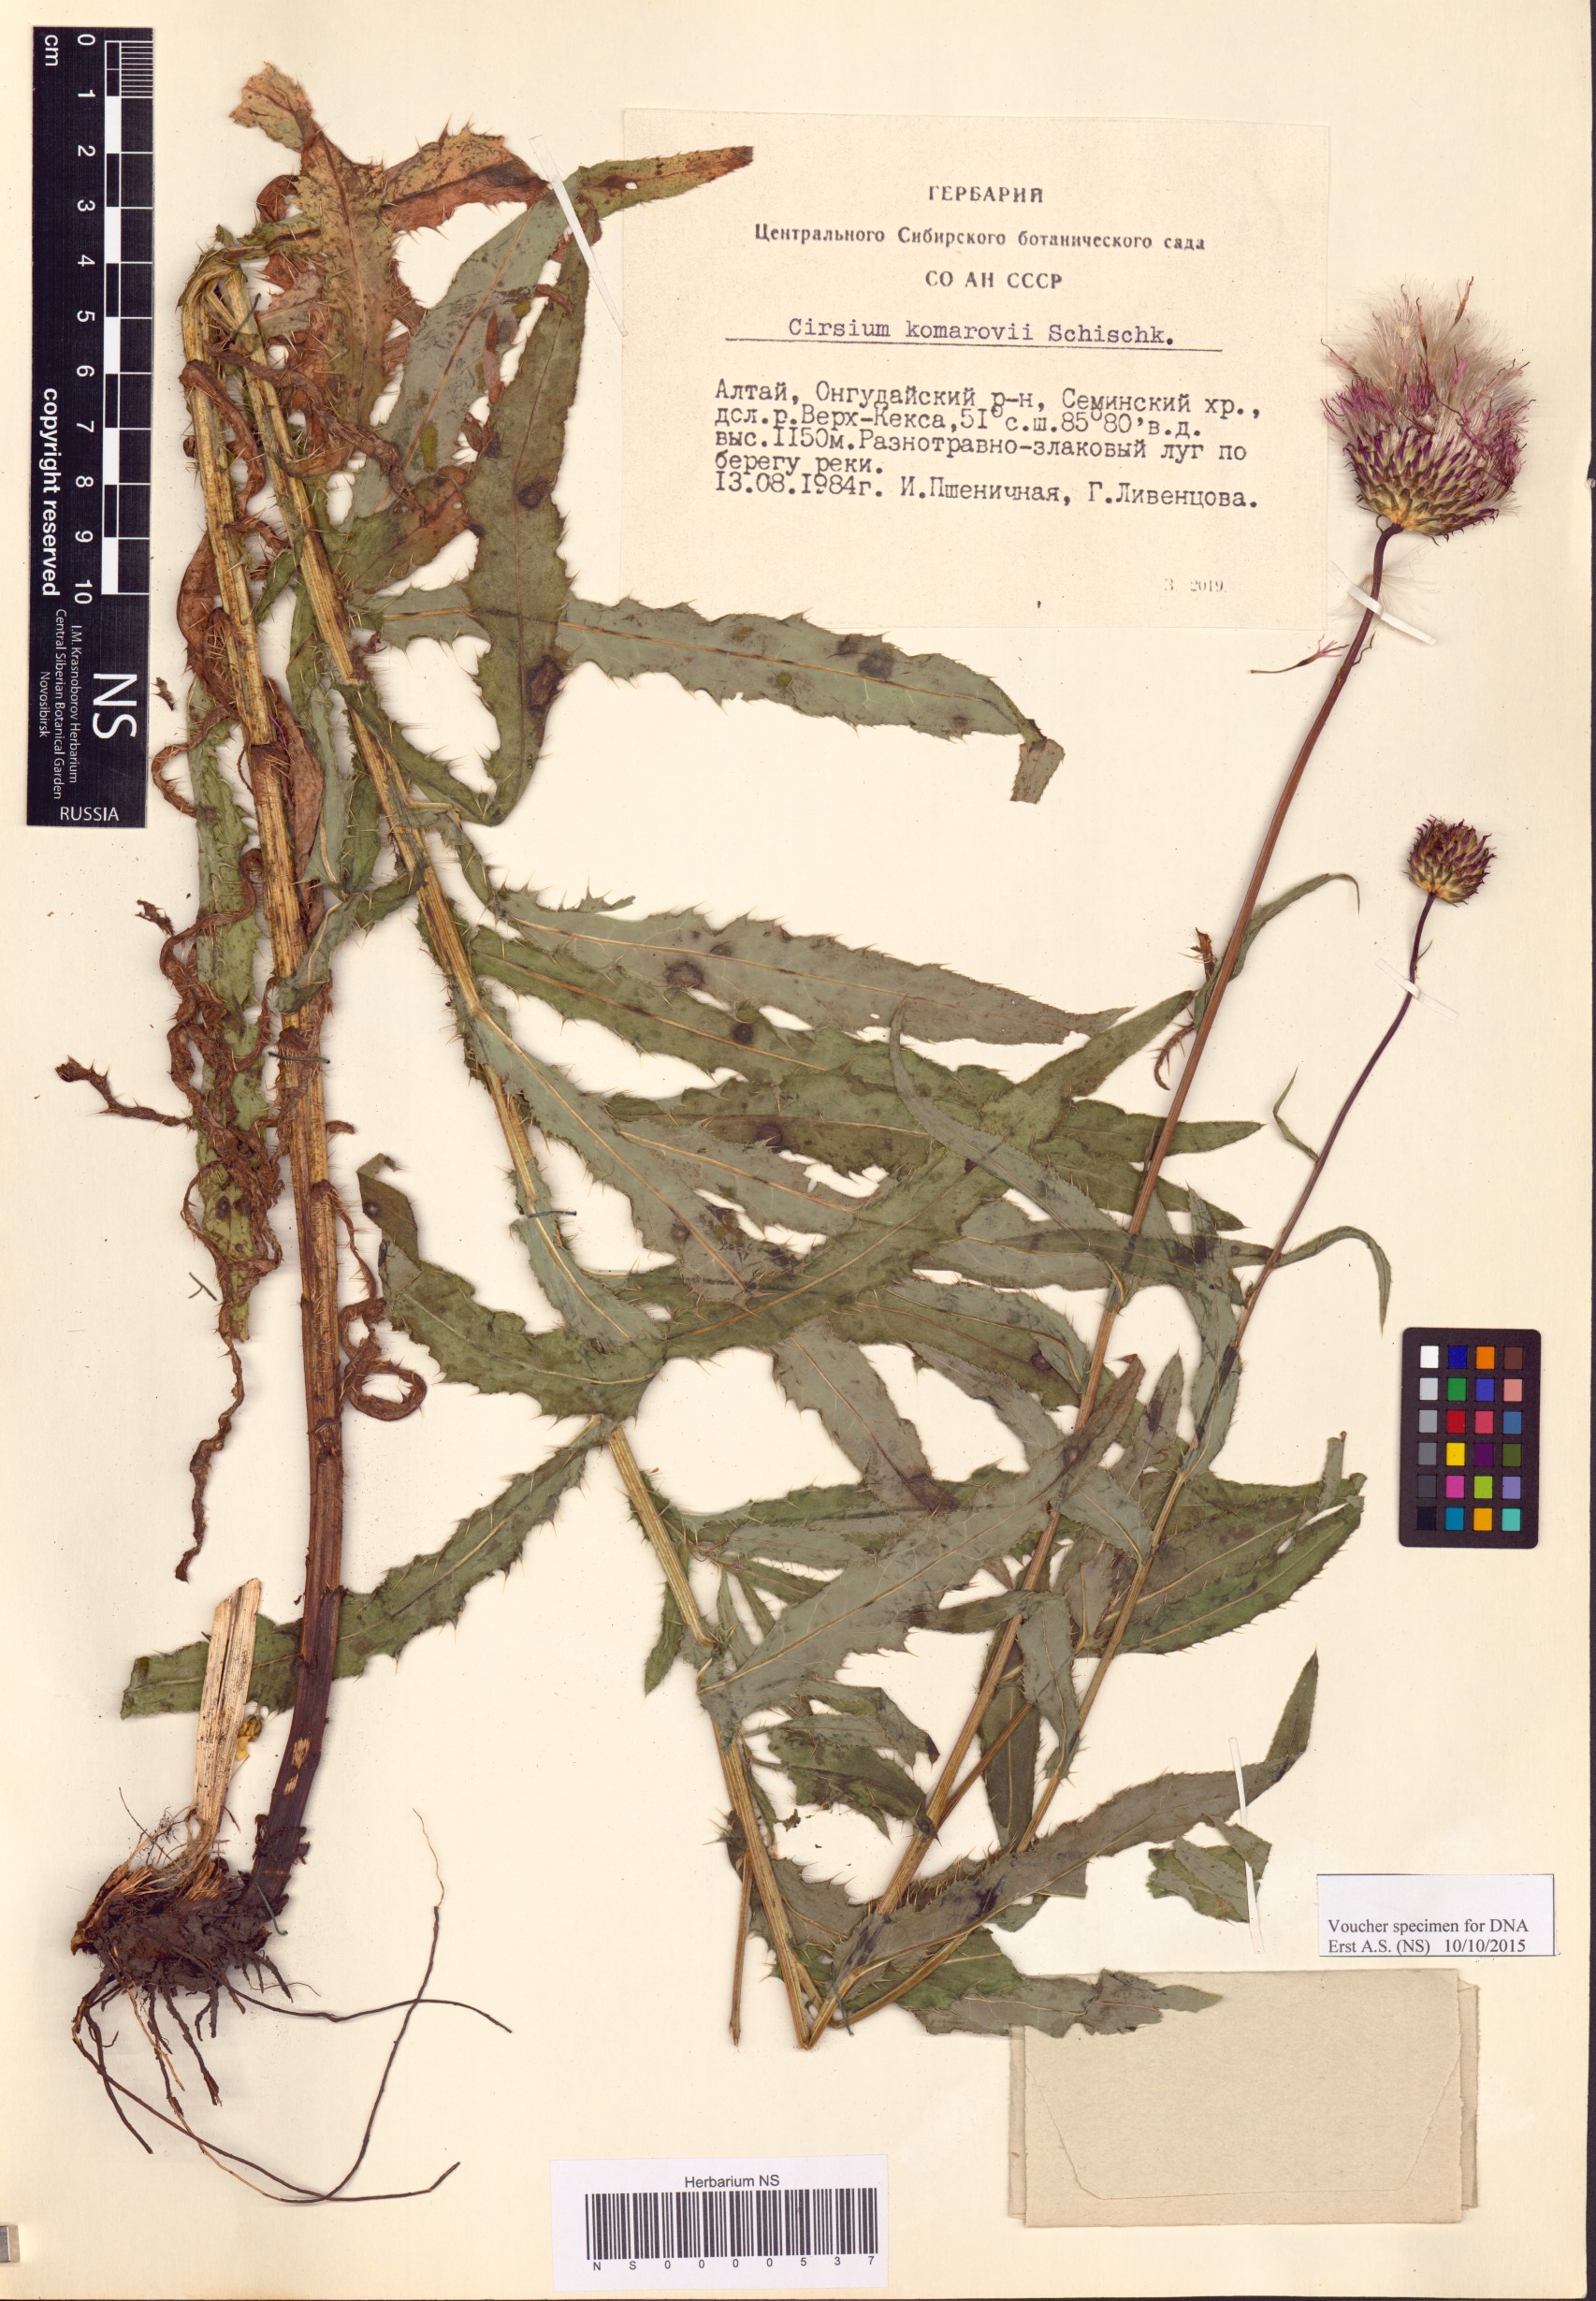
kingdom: Plantae
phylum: Tracheophyta
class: Magnoliopsida
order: Asterales
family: Asteraceae
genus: Cirsium
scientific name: Cirsium komarovii
